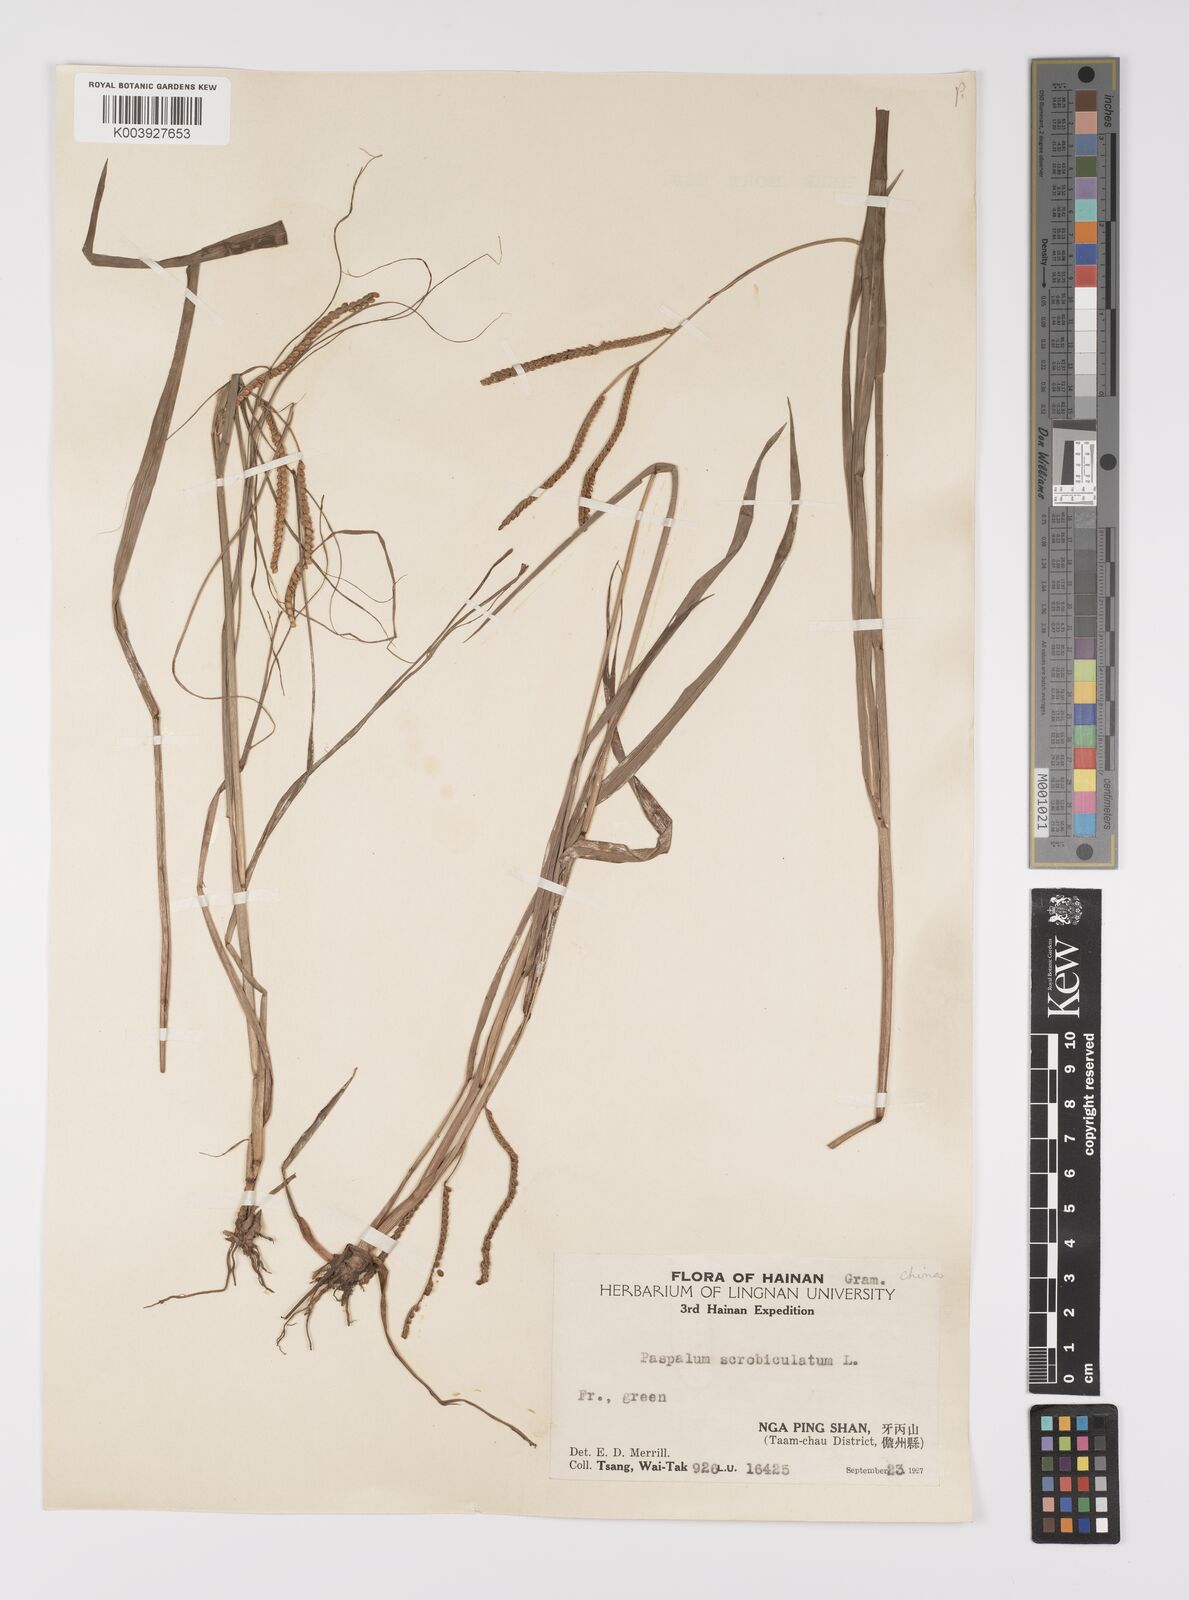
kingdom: Plantae
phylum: Tracheophyta
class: Liliopsida
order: Poales
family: Poaceae
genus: Paspalum
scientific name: Paspalum scrobiculatum
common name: Kodo millet
